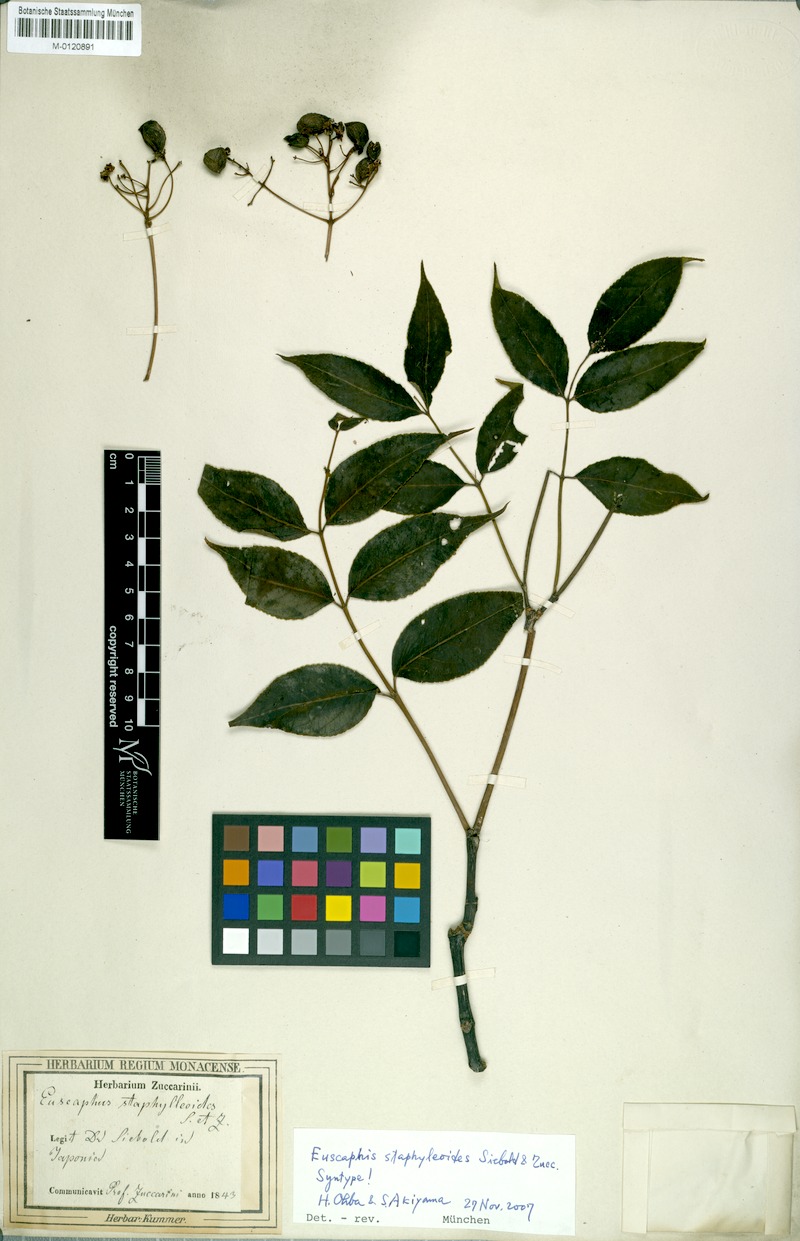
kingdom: Plantae
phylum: Tracheophyta
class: Magnoliopsida
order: Crossosomatales
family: Staphyleaceae
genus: Staphylea
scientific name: Staphylea japonica
